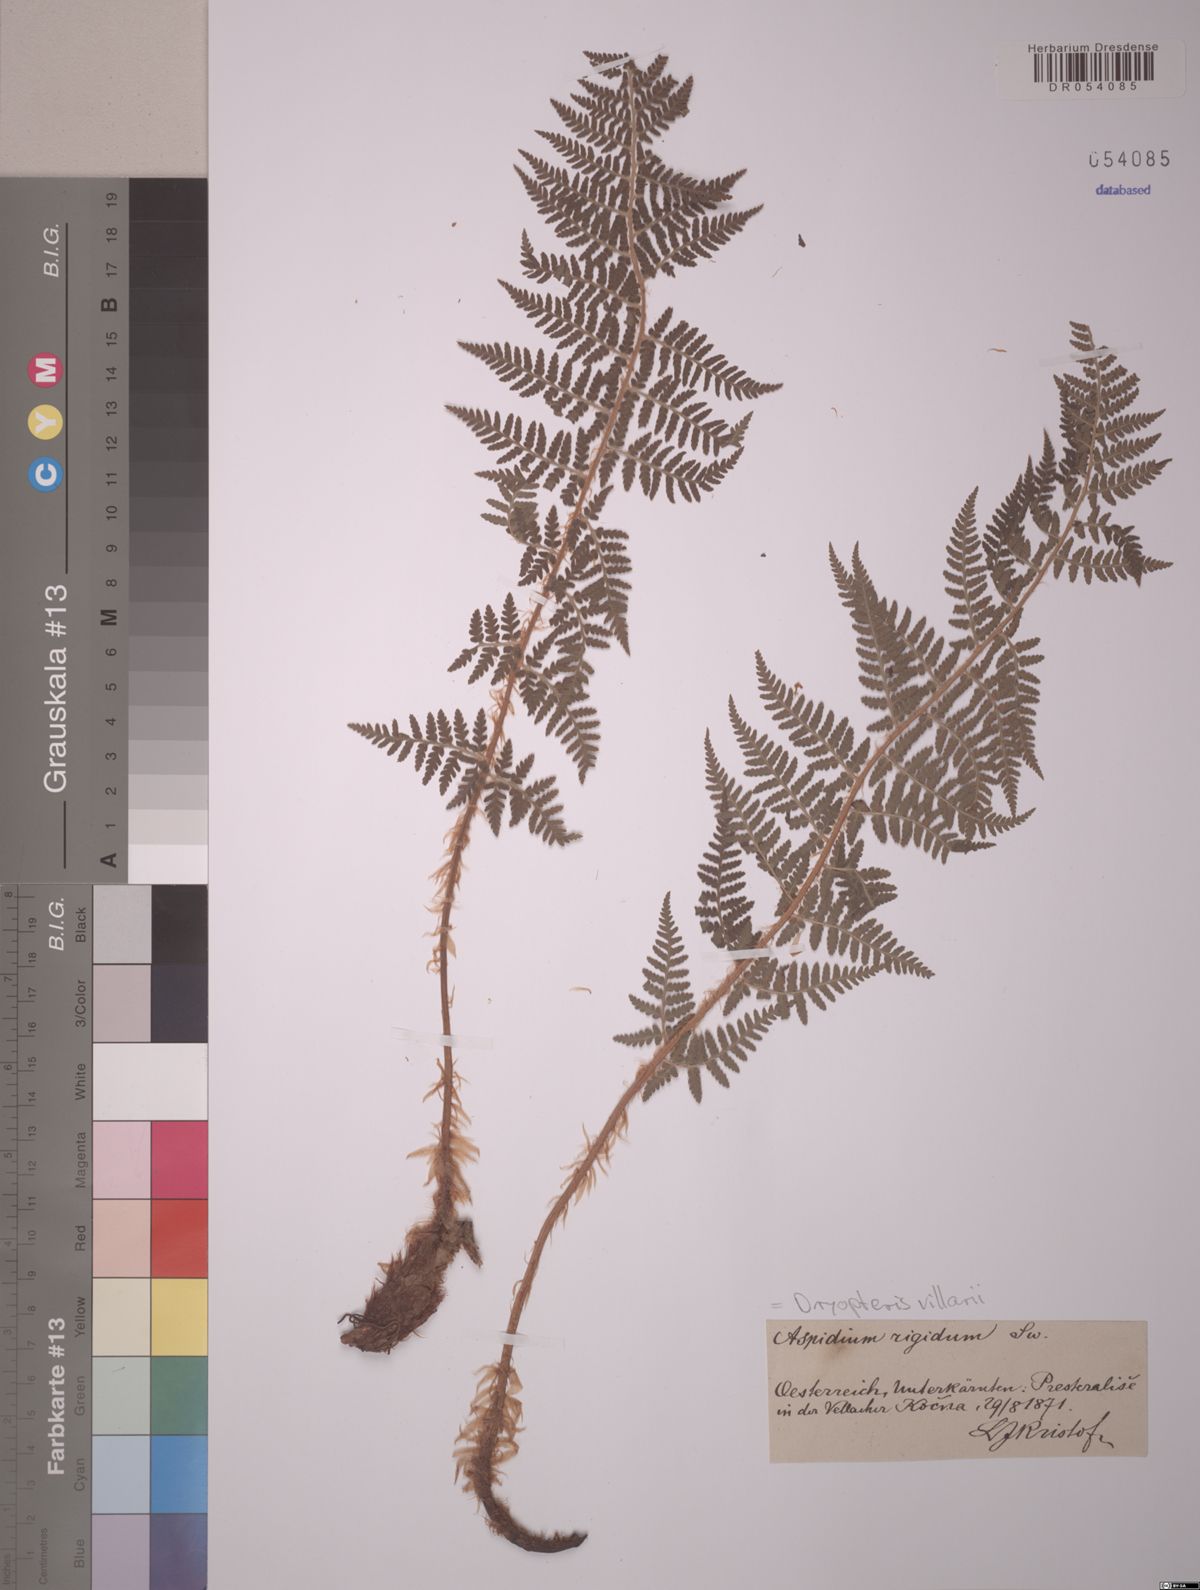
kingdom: Plantae
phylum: Tracheophyta
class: Polypodiopsida
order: Polypodiales
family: Dryopteridaceae
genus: Dryopteris
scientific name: Dryopteris villarii
